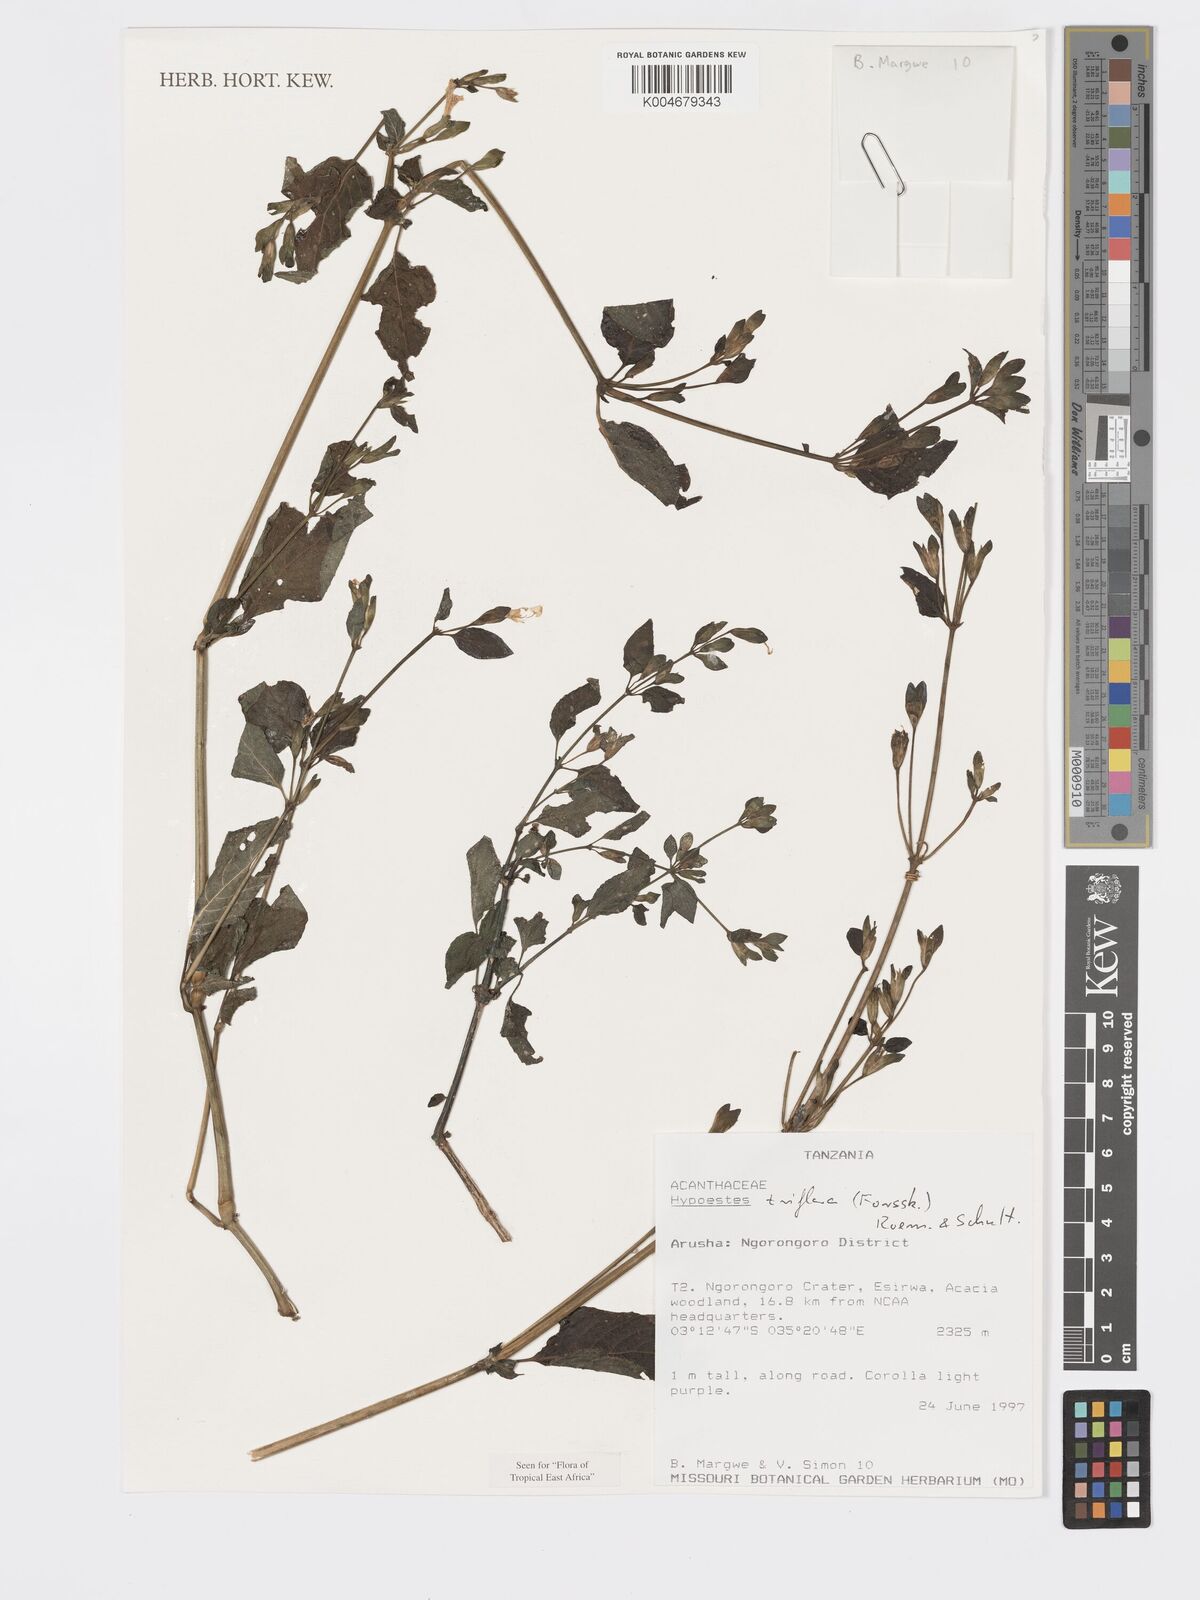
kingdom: Plantae
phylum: Tracheophyta
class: Magnoliopsida
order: Lamiales
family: Acanthaceae
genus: Hypoestes
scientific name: Hypoestes triflora
